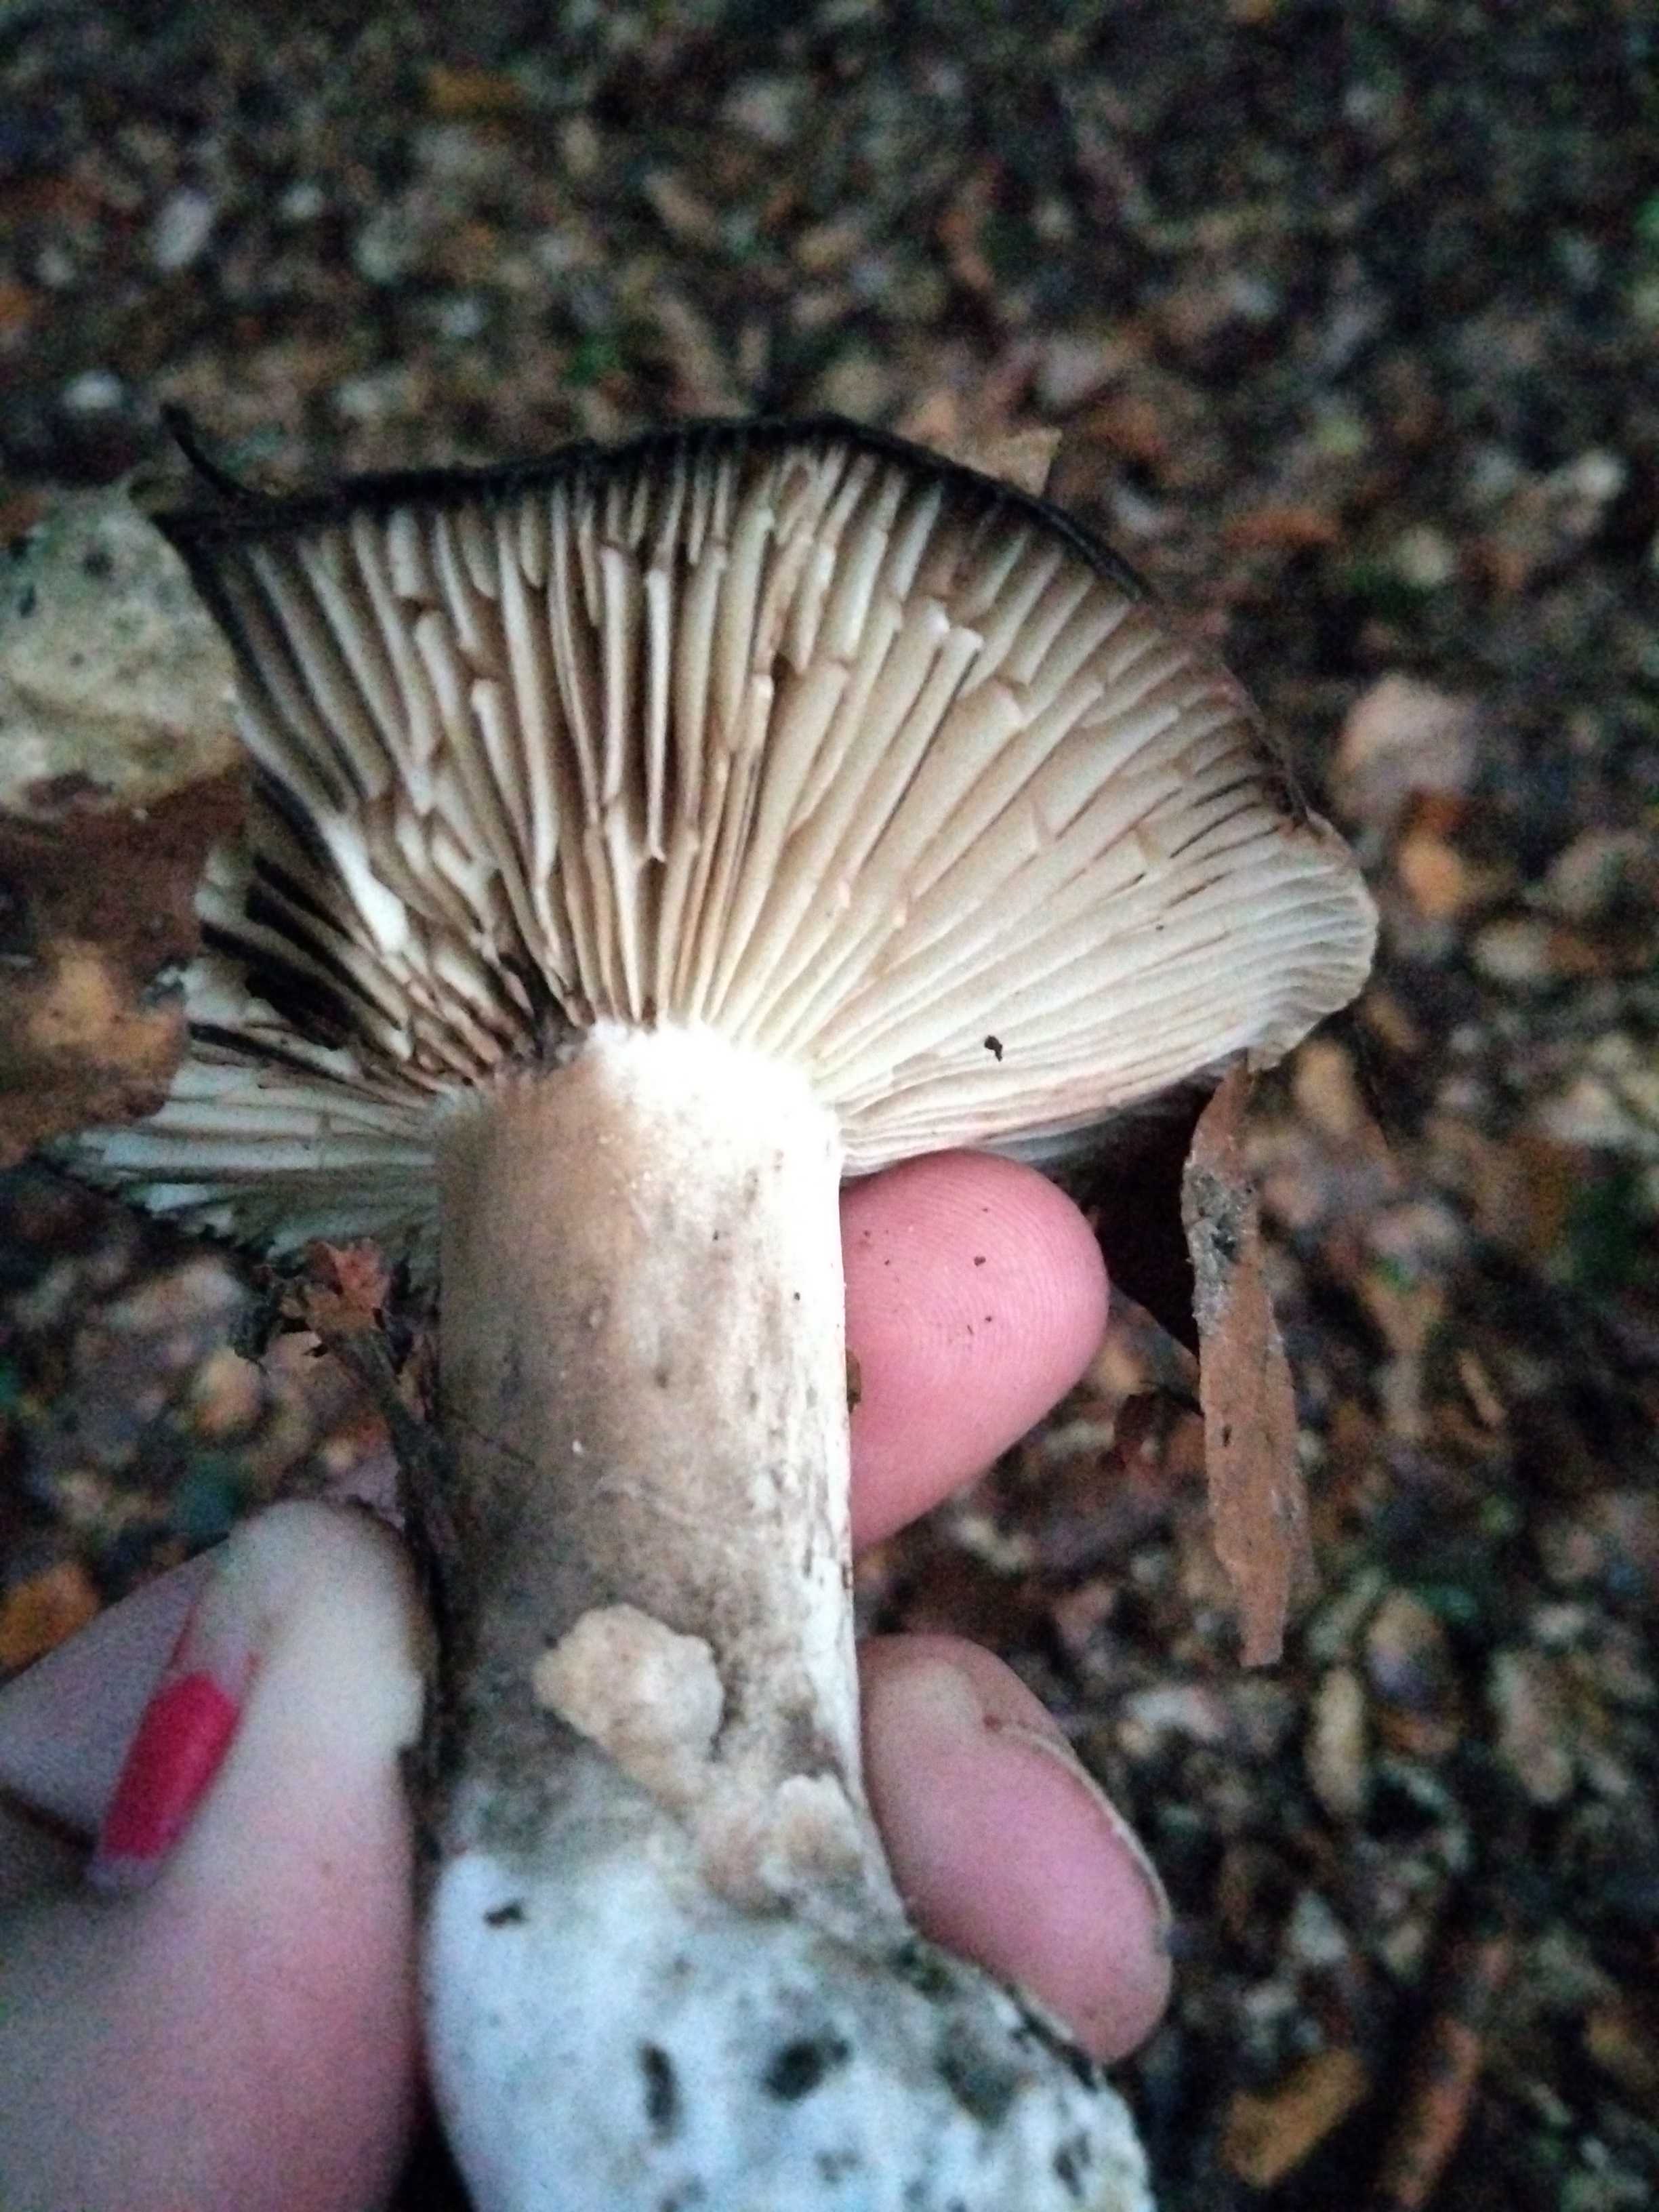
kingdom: Fungi
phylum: Basidiomycota
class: Agaricomycetes
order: Russulales
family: Russulaceae
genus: Russula
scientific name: Russula adusta
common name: sværtende skørhat
